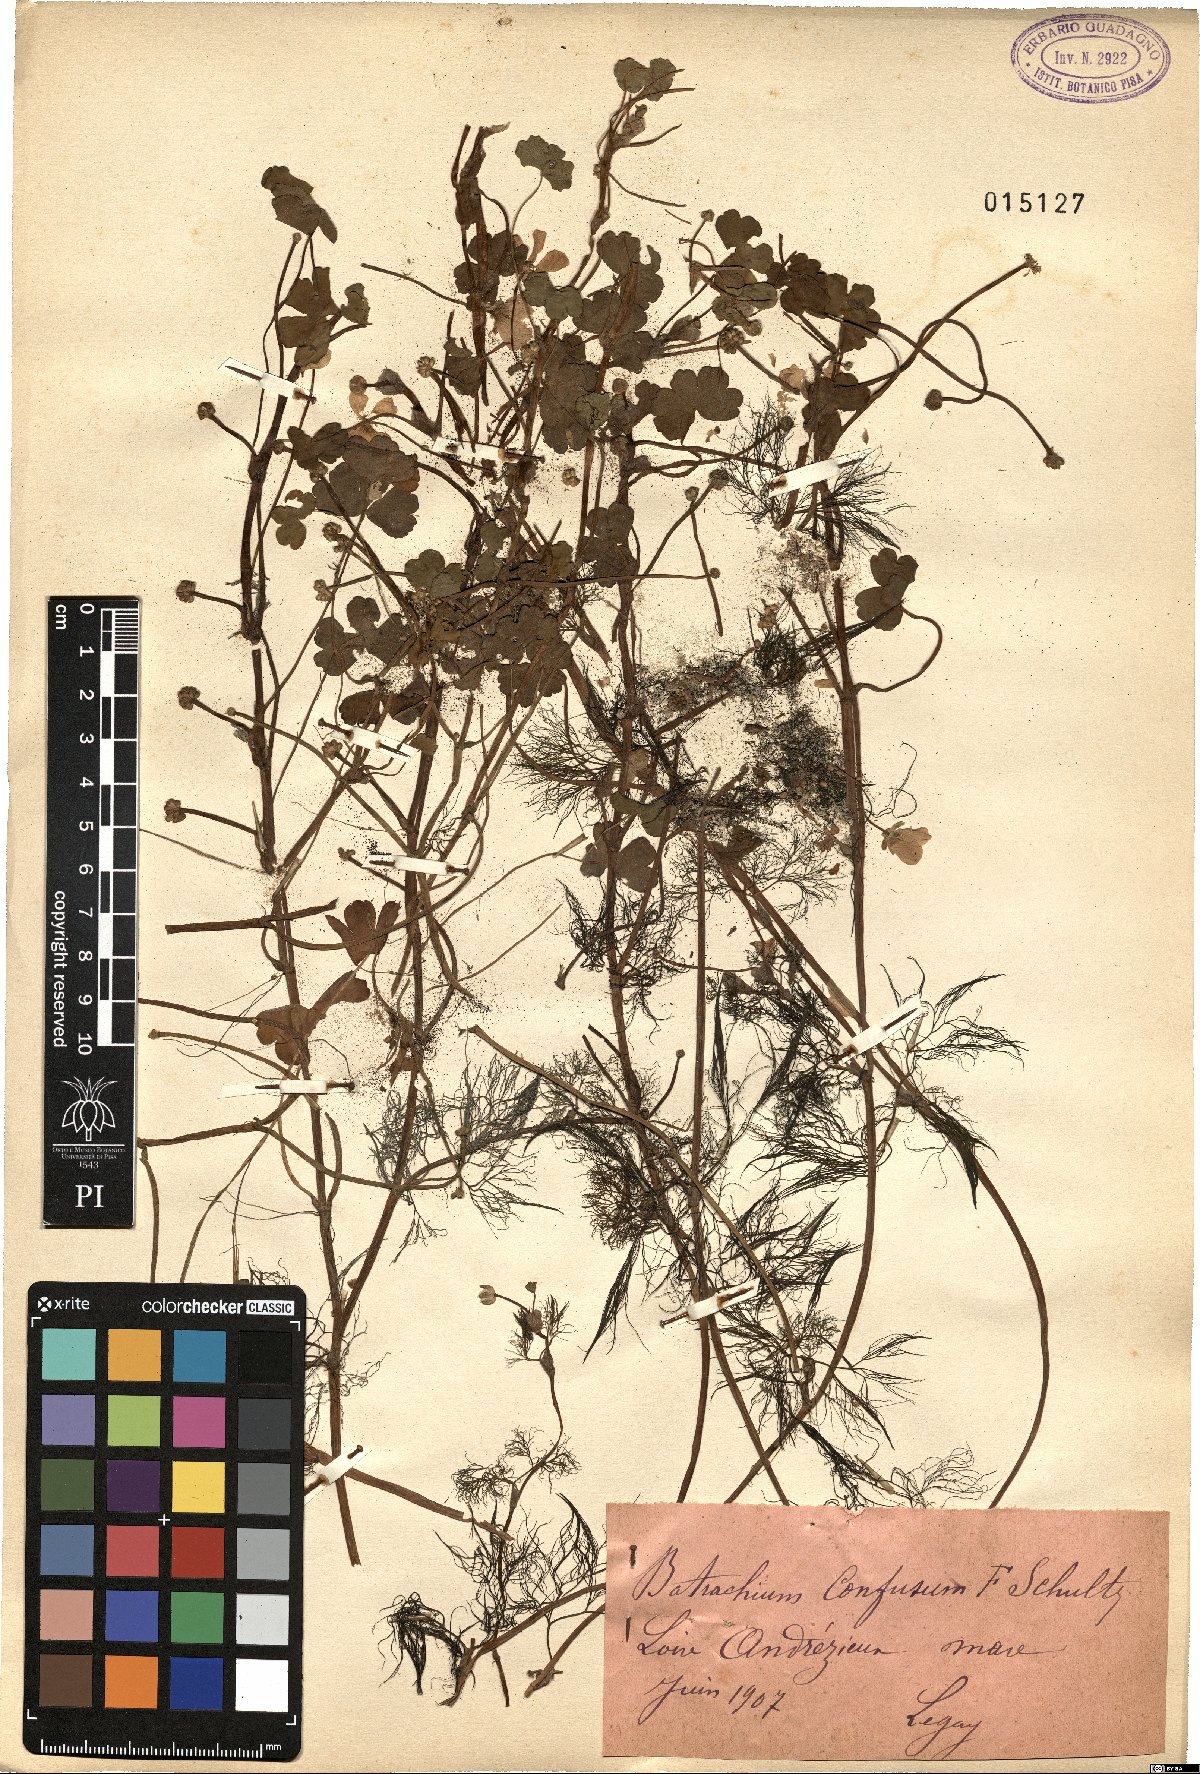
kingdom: Plantae
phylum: Tracheophyta
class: Magnoliopsida
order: Ranunculales
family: Ranunculaceae
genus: Ranunculus
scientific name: Ranunculus tripartitus
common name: Three-lobed crowfoot
